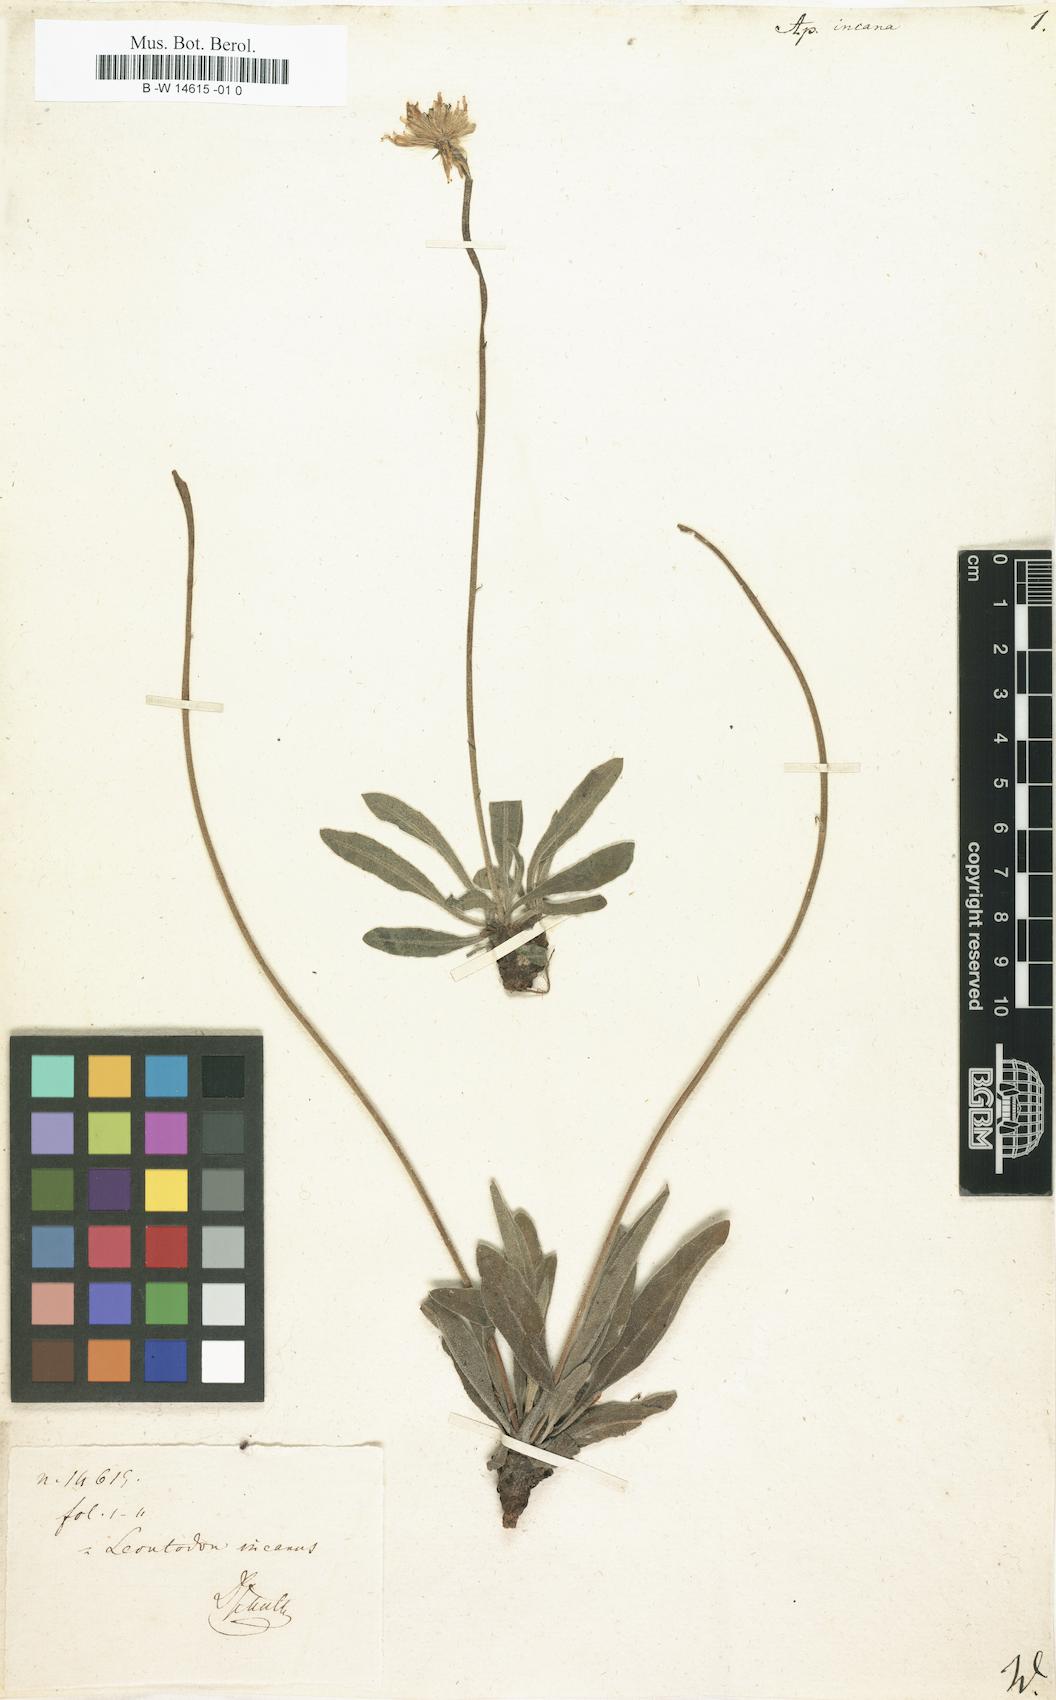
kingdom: Plantae
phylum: Tracheophyta
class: Magnoliopsida
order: Asterales
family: Asteraceae
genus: Leontodon
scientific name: Leontodon
